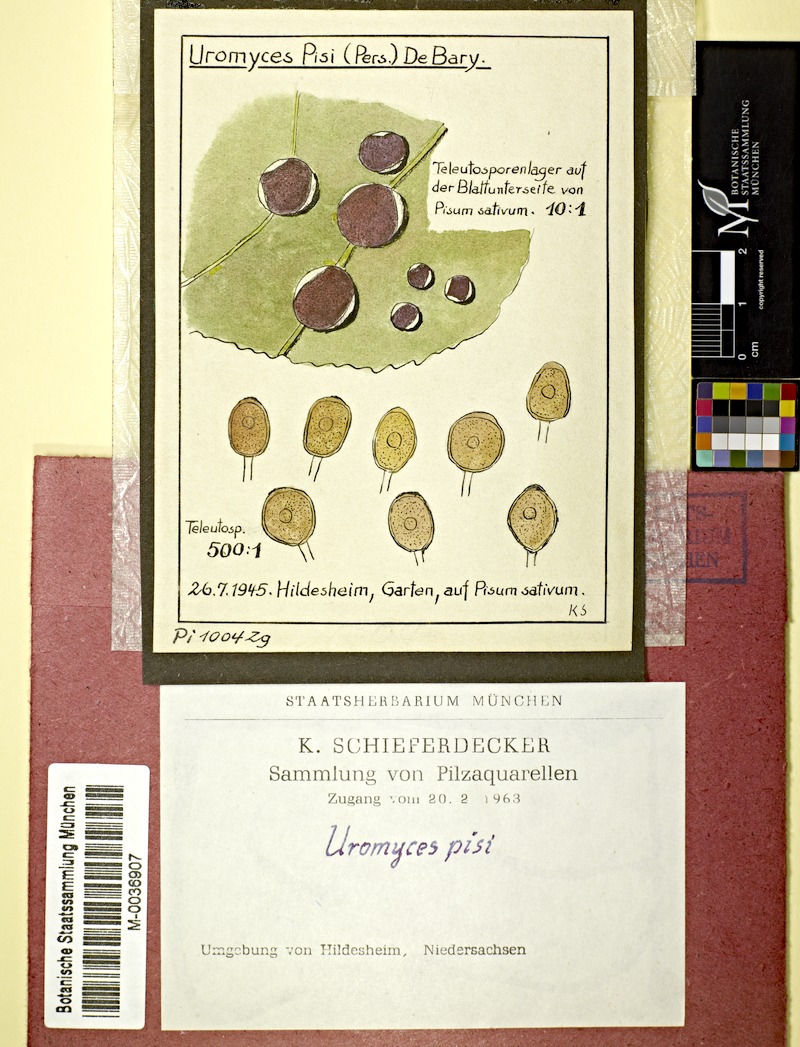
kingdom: Plantae
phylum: Tracheophyta
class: Magnoliopsida
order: Fabales
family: Fabaceae
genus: Lathyrus
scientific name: Lathyrus oleraceus
